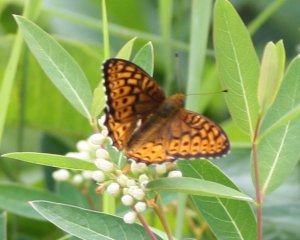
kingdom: Animalia
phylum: Arthropoda
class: Insecta
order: Lepidoptera
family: Nymphalidae
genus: Speyeria
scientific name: Speyeria atlantis
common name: Atlantis Fritillary
